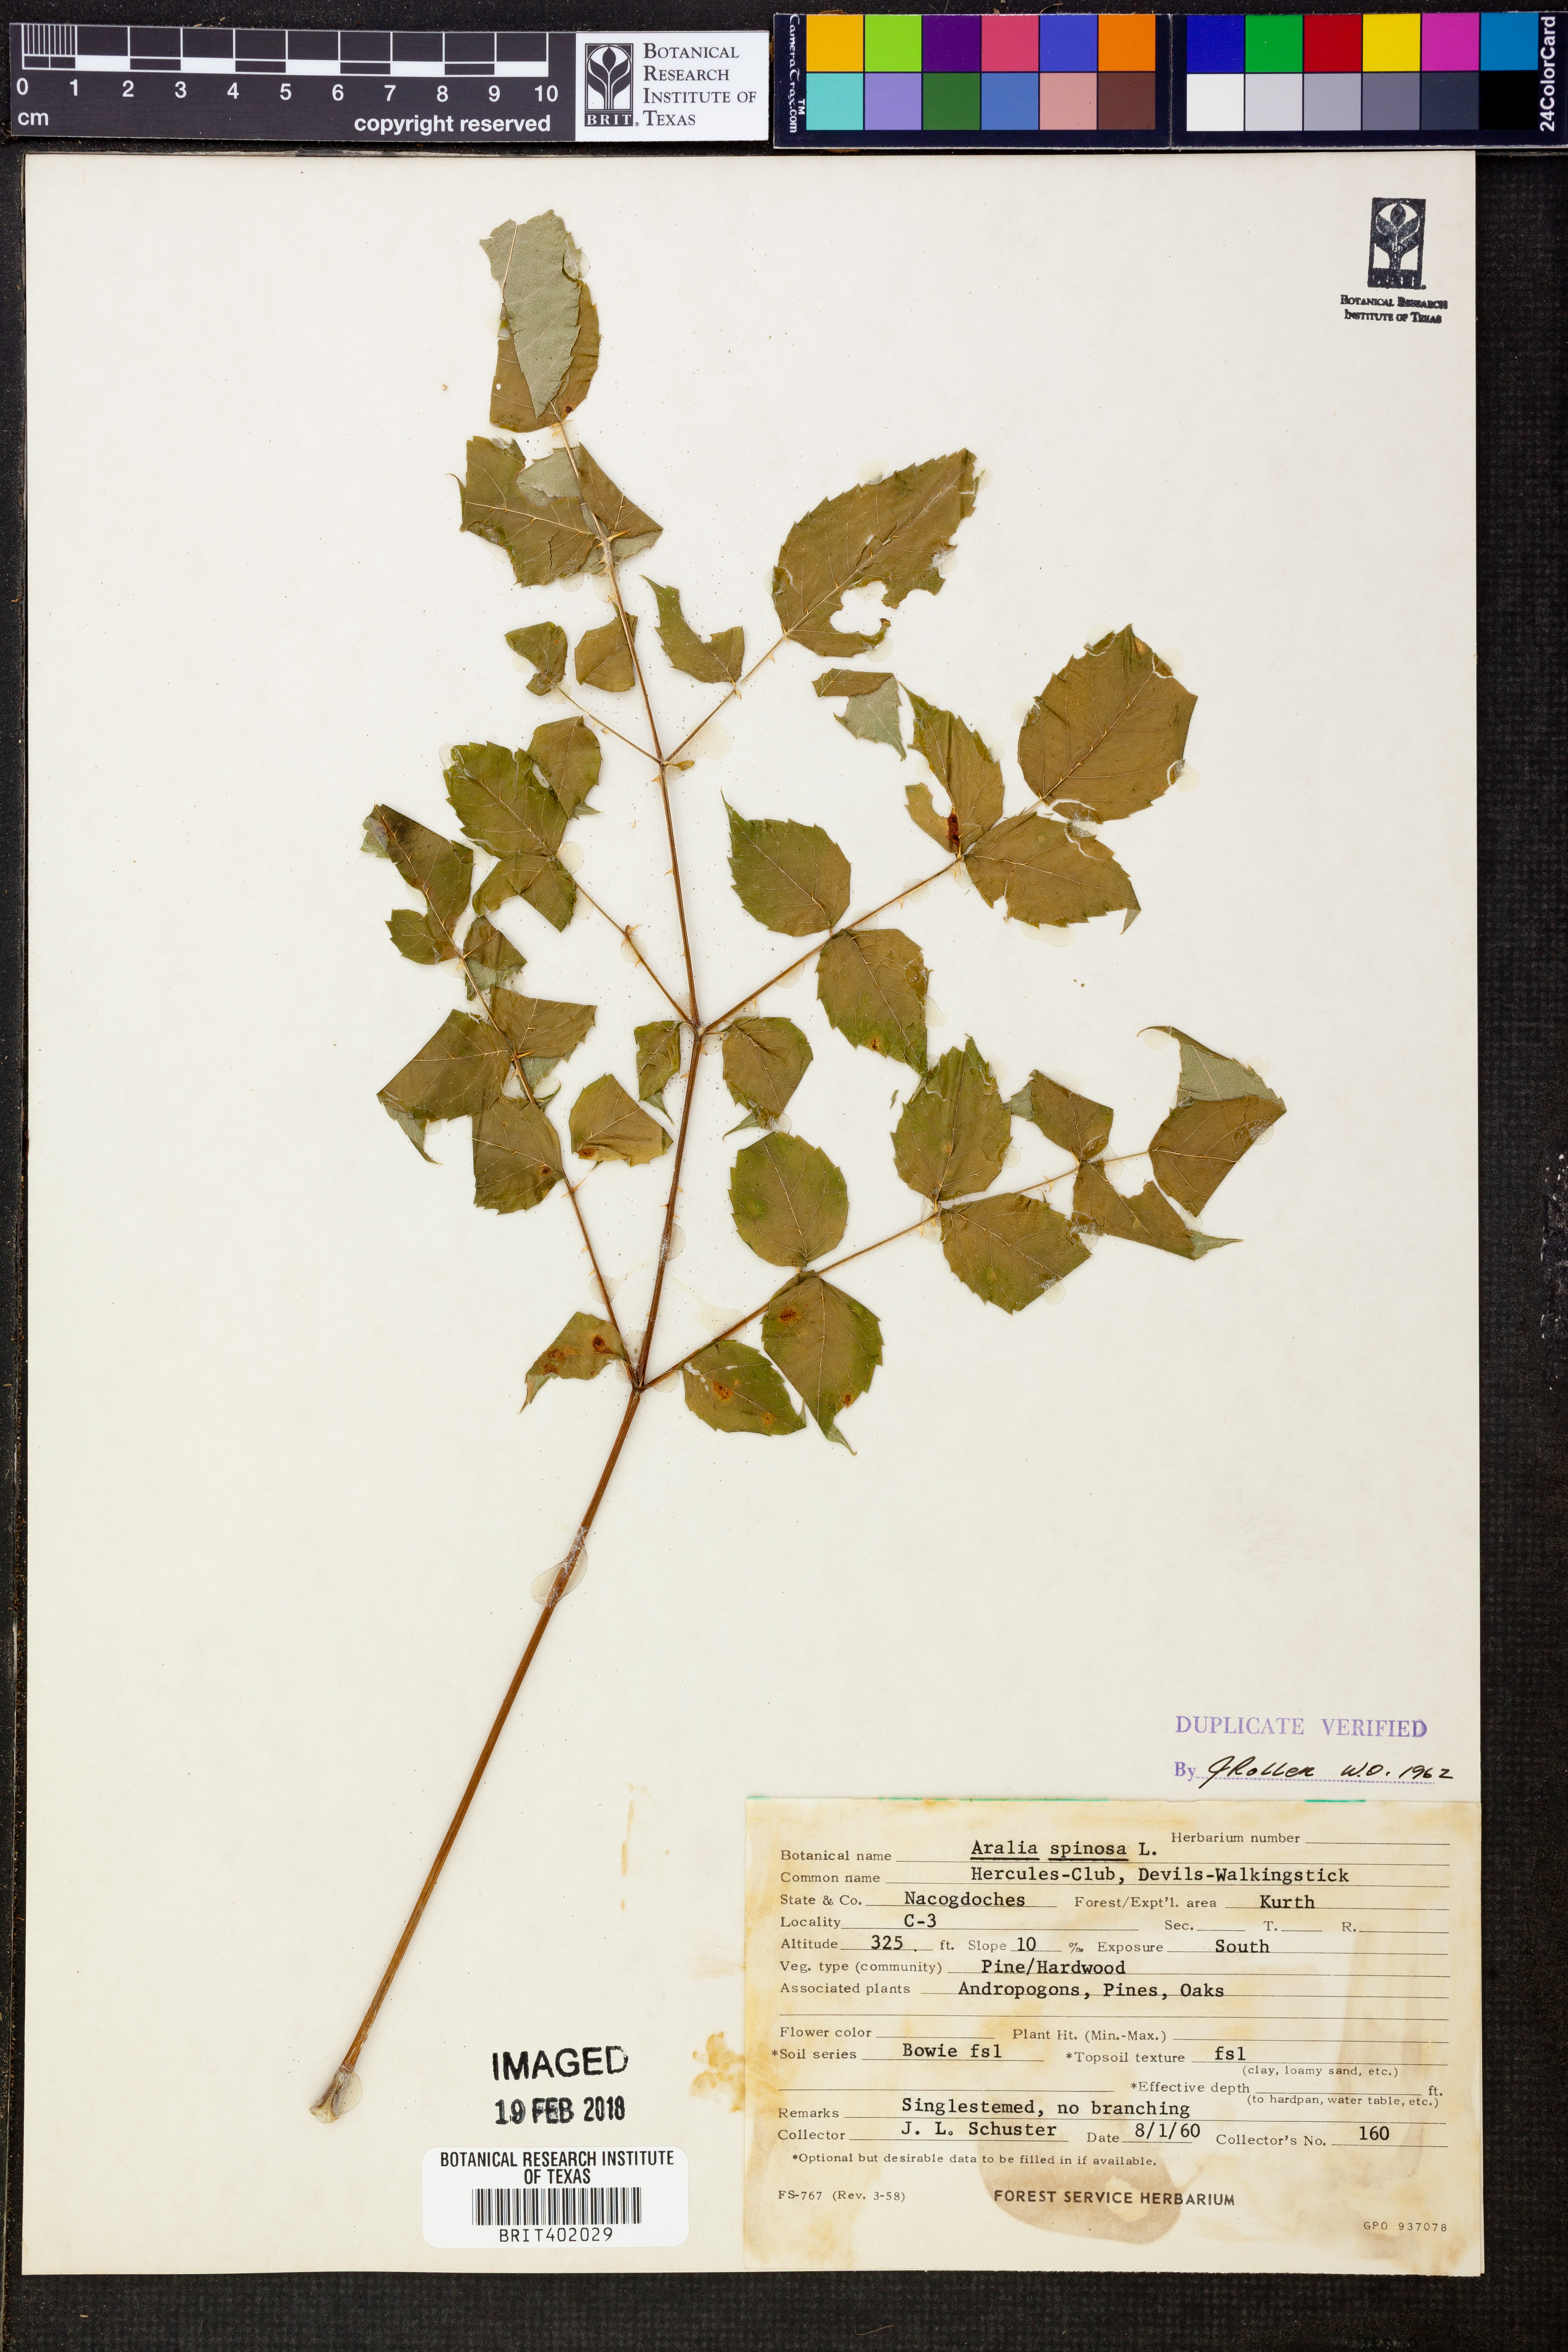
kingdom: Plantae
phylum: Tracheophyta
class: Magnoliopsida
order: Apiales
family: Araliaceae
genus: Aralia
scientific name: Aralia spinosa
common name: Hercules'-club
